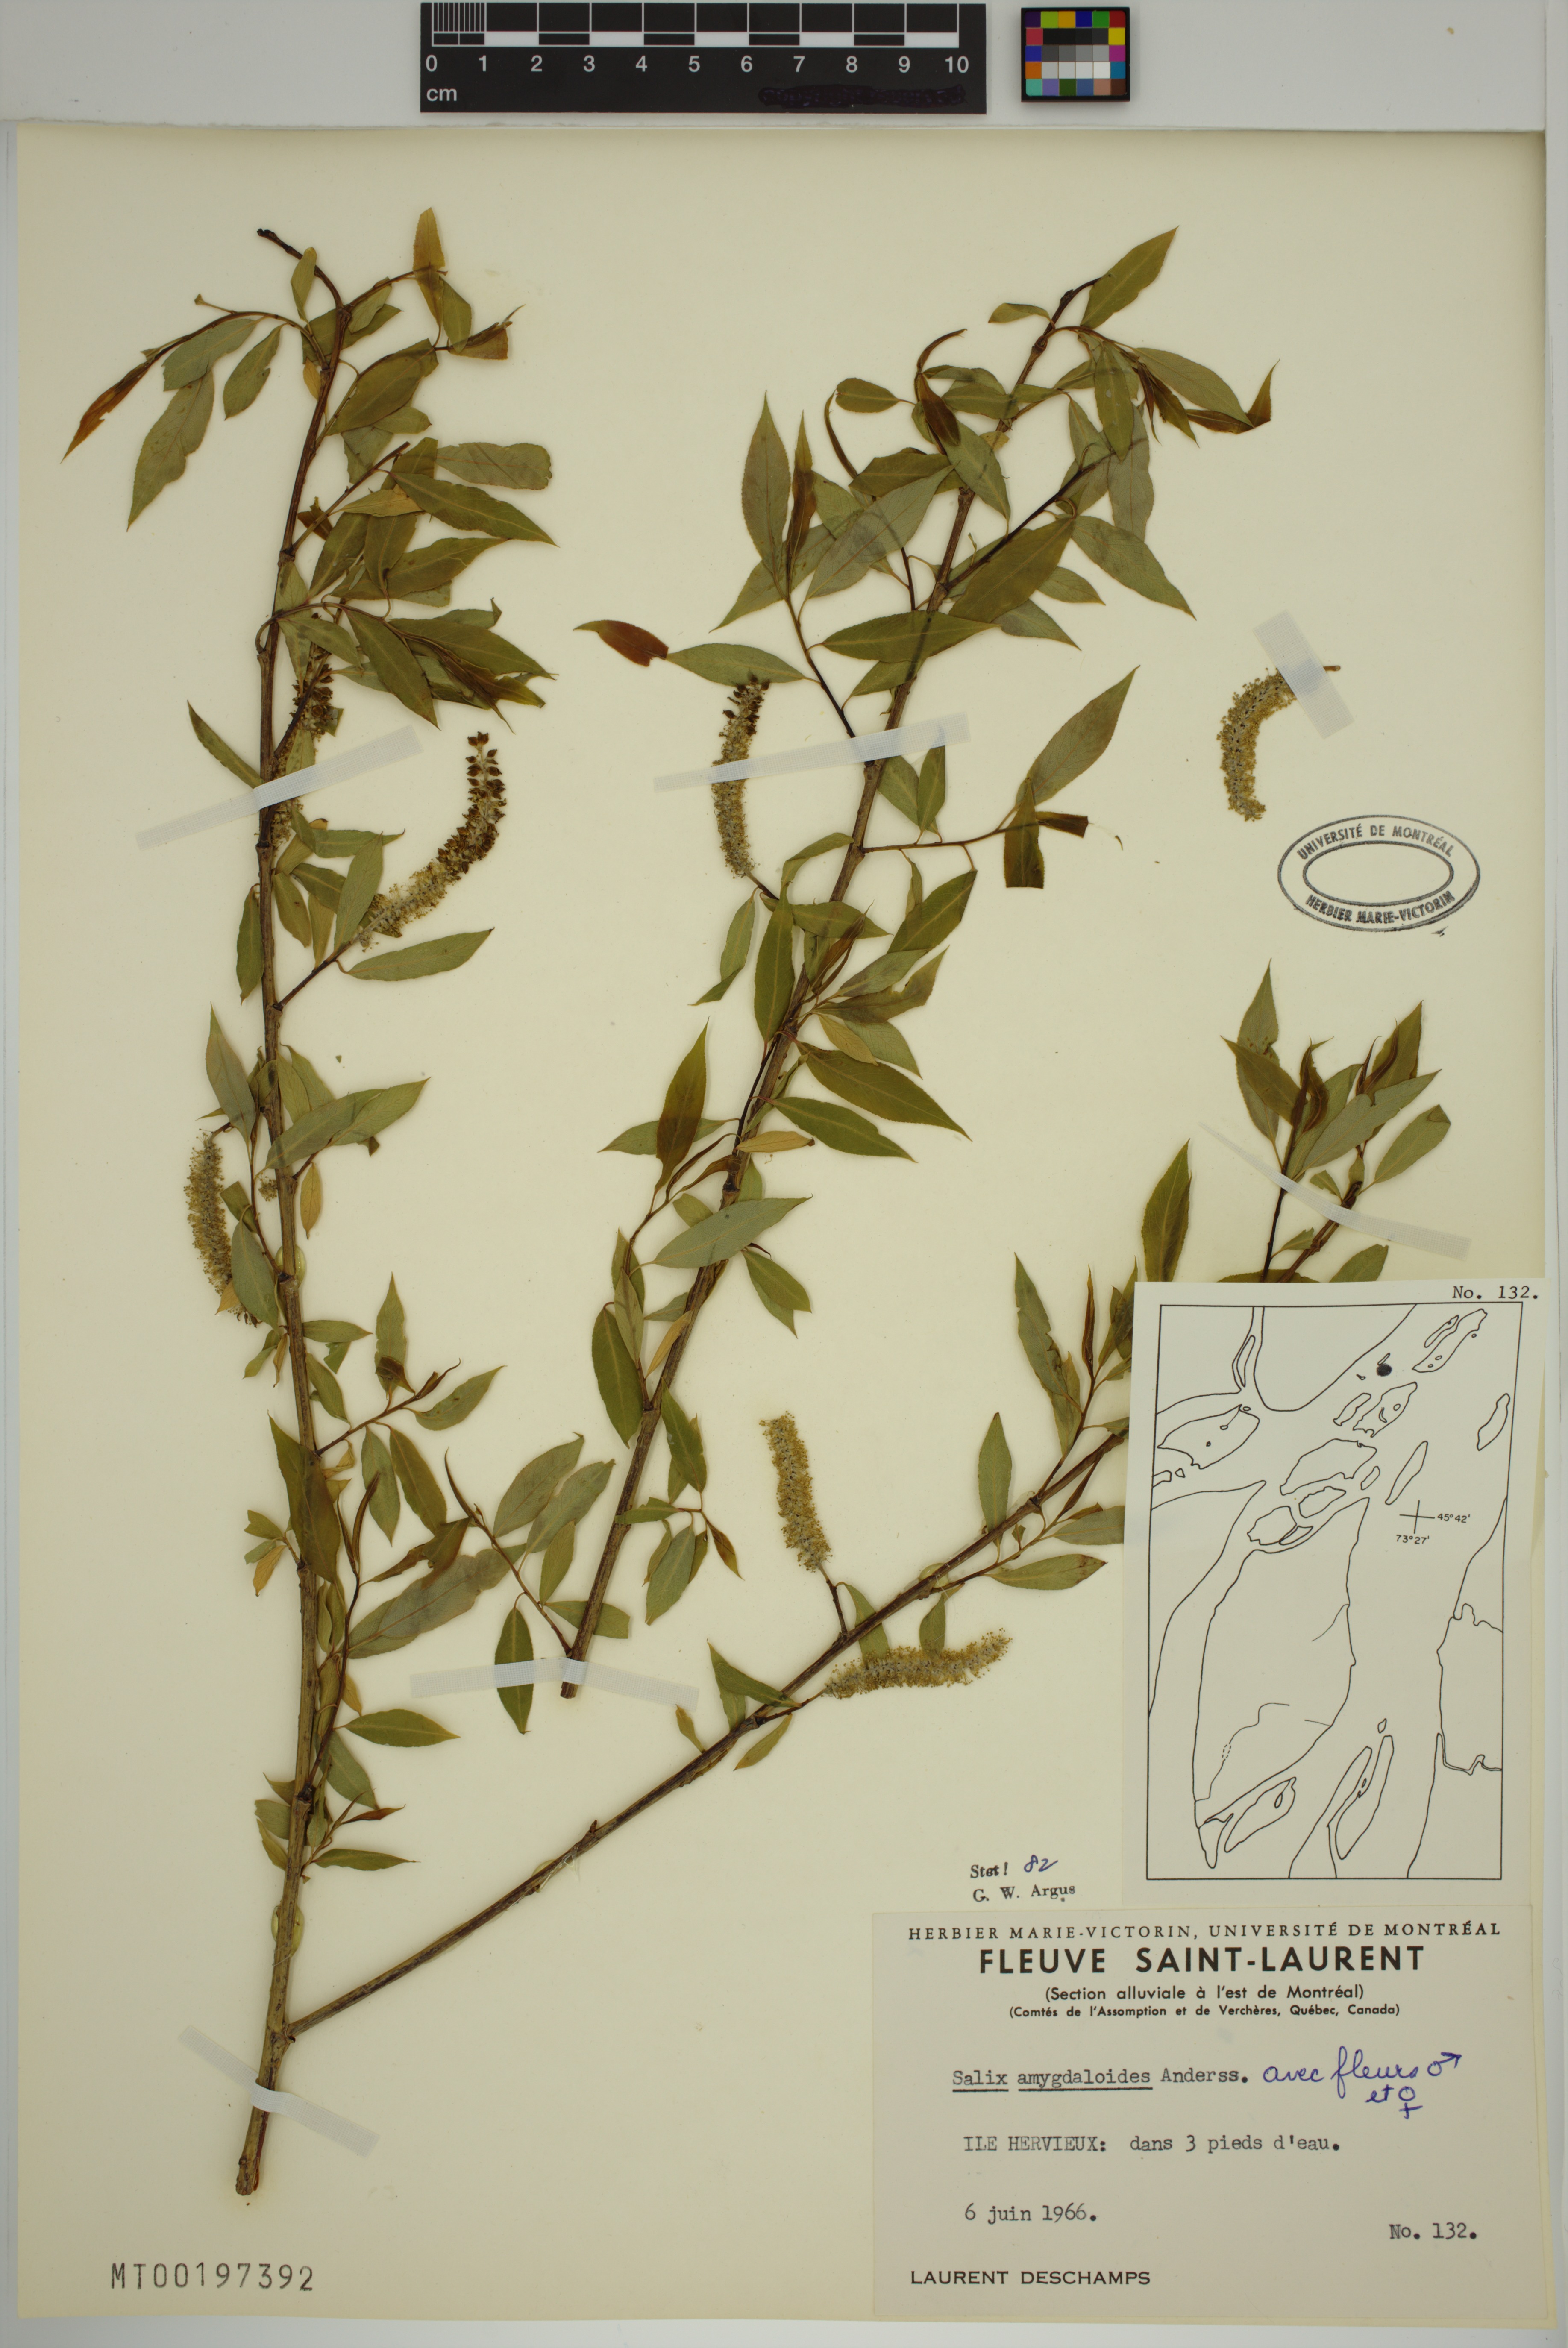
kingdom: Plantae
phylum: Tracheophyta
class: Magnoliopsida
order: Malpighiales
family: Salicaceae
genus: Salix
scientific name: Salix amygdaloides
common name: Peach leaf willow
